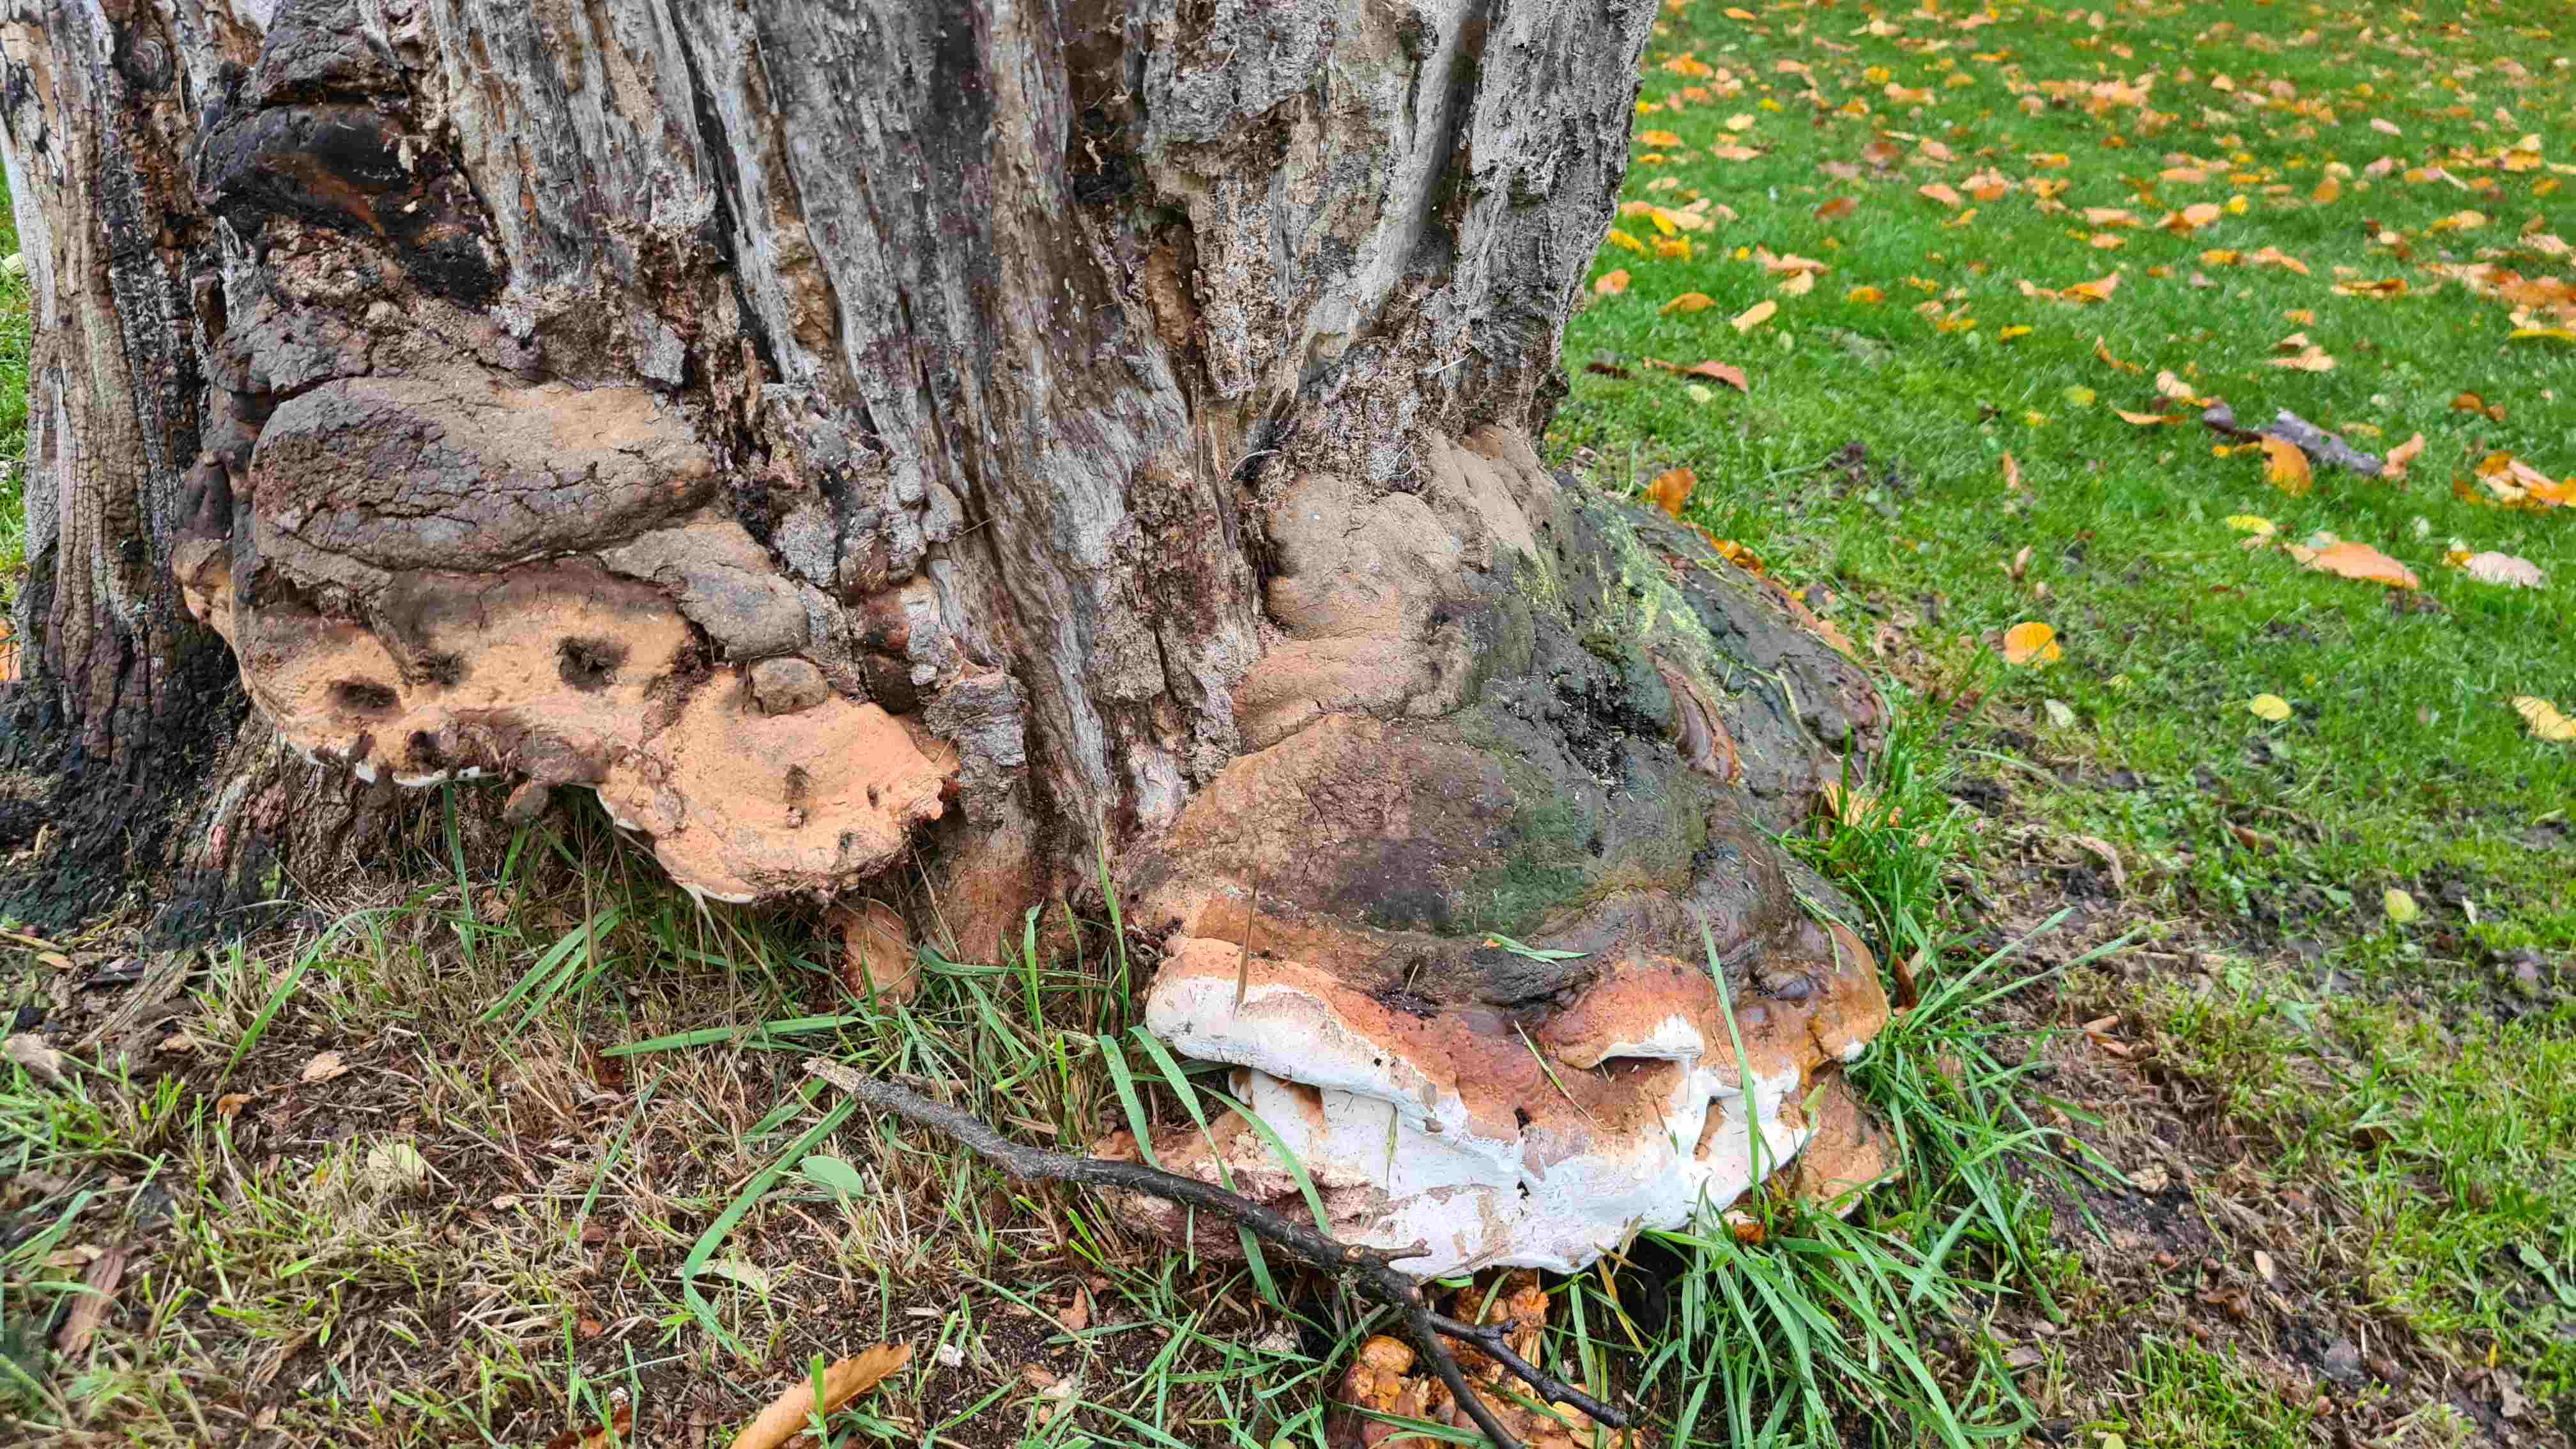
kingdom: Fungi
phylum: Basidiomycota
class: Agaricomycetes
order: Polyporales
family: Polyporaceae
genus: Ganoderma
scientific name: Ganoderma pfeifferi
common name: kobberrød lakporesvamp
